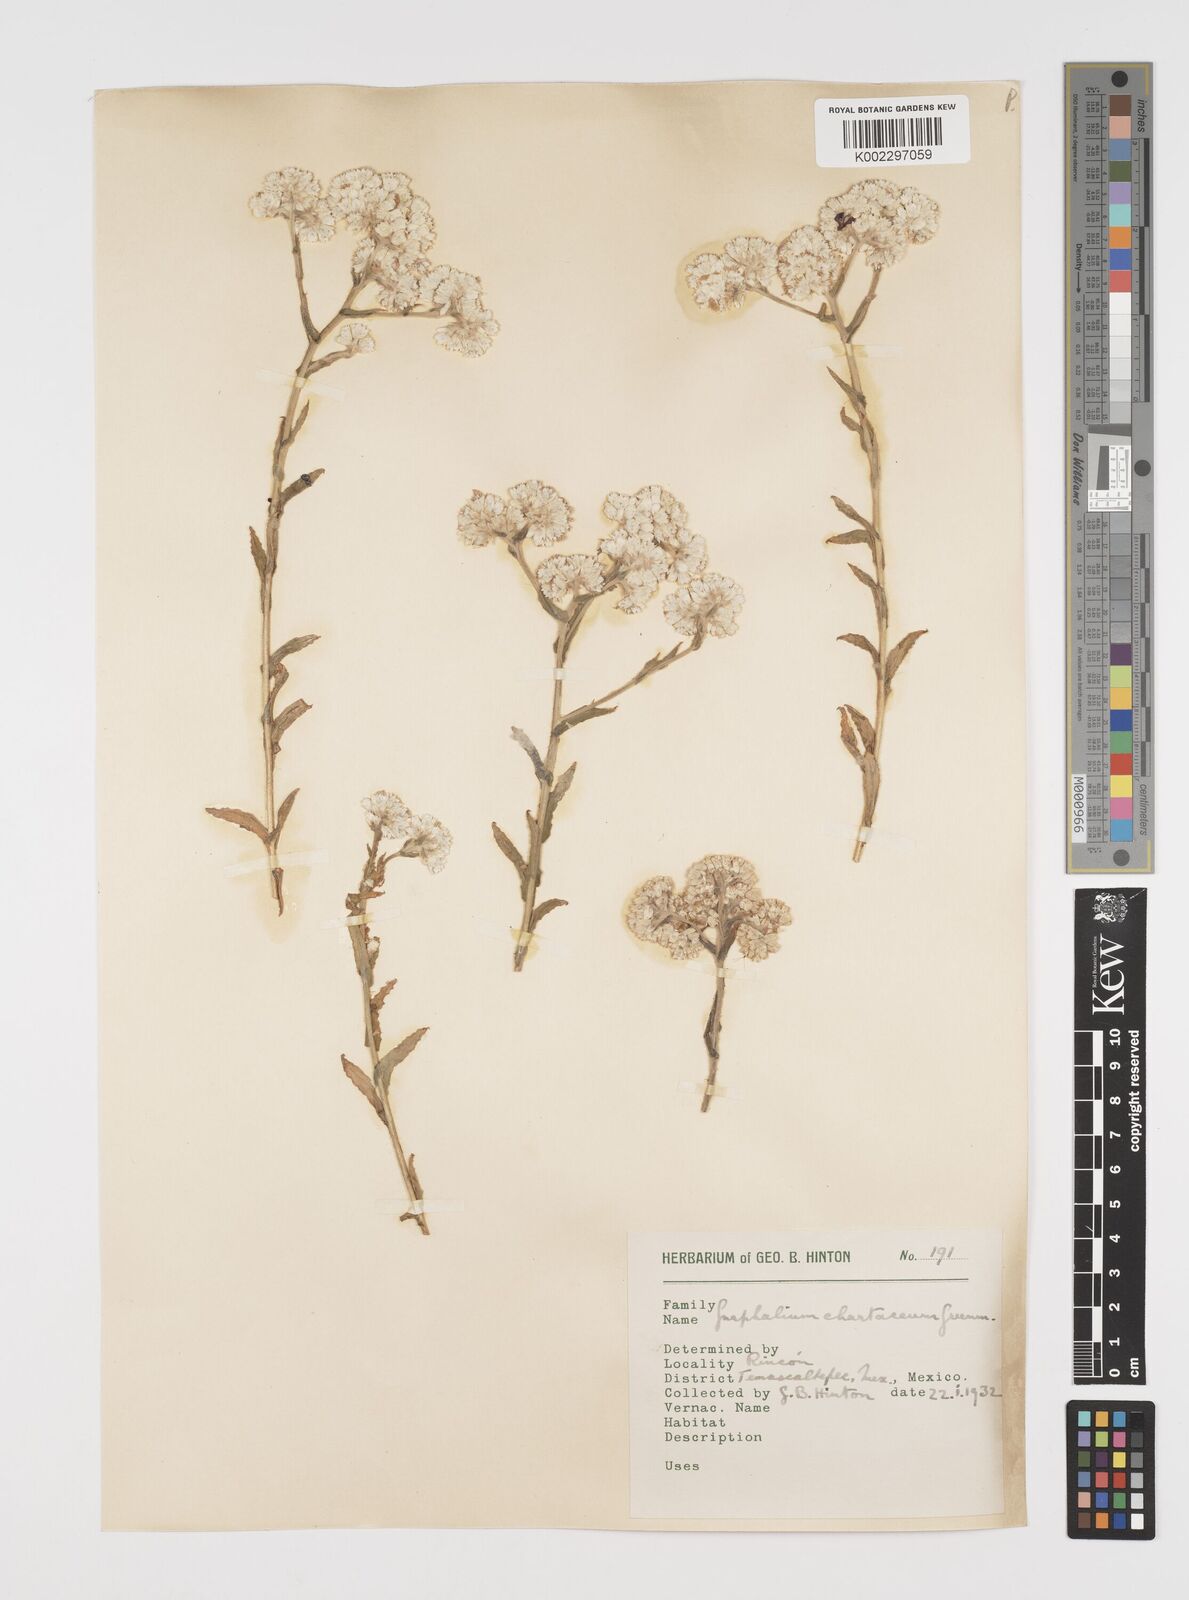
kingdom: Plantae
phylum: Tracheophyta
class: Magnoliopsida
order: Asterales
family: Asteraceae
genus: Pseudognaphalium
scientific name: Pseudognaphalium chartaceum
